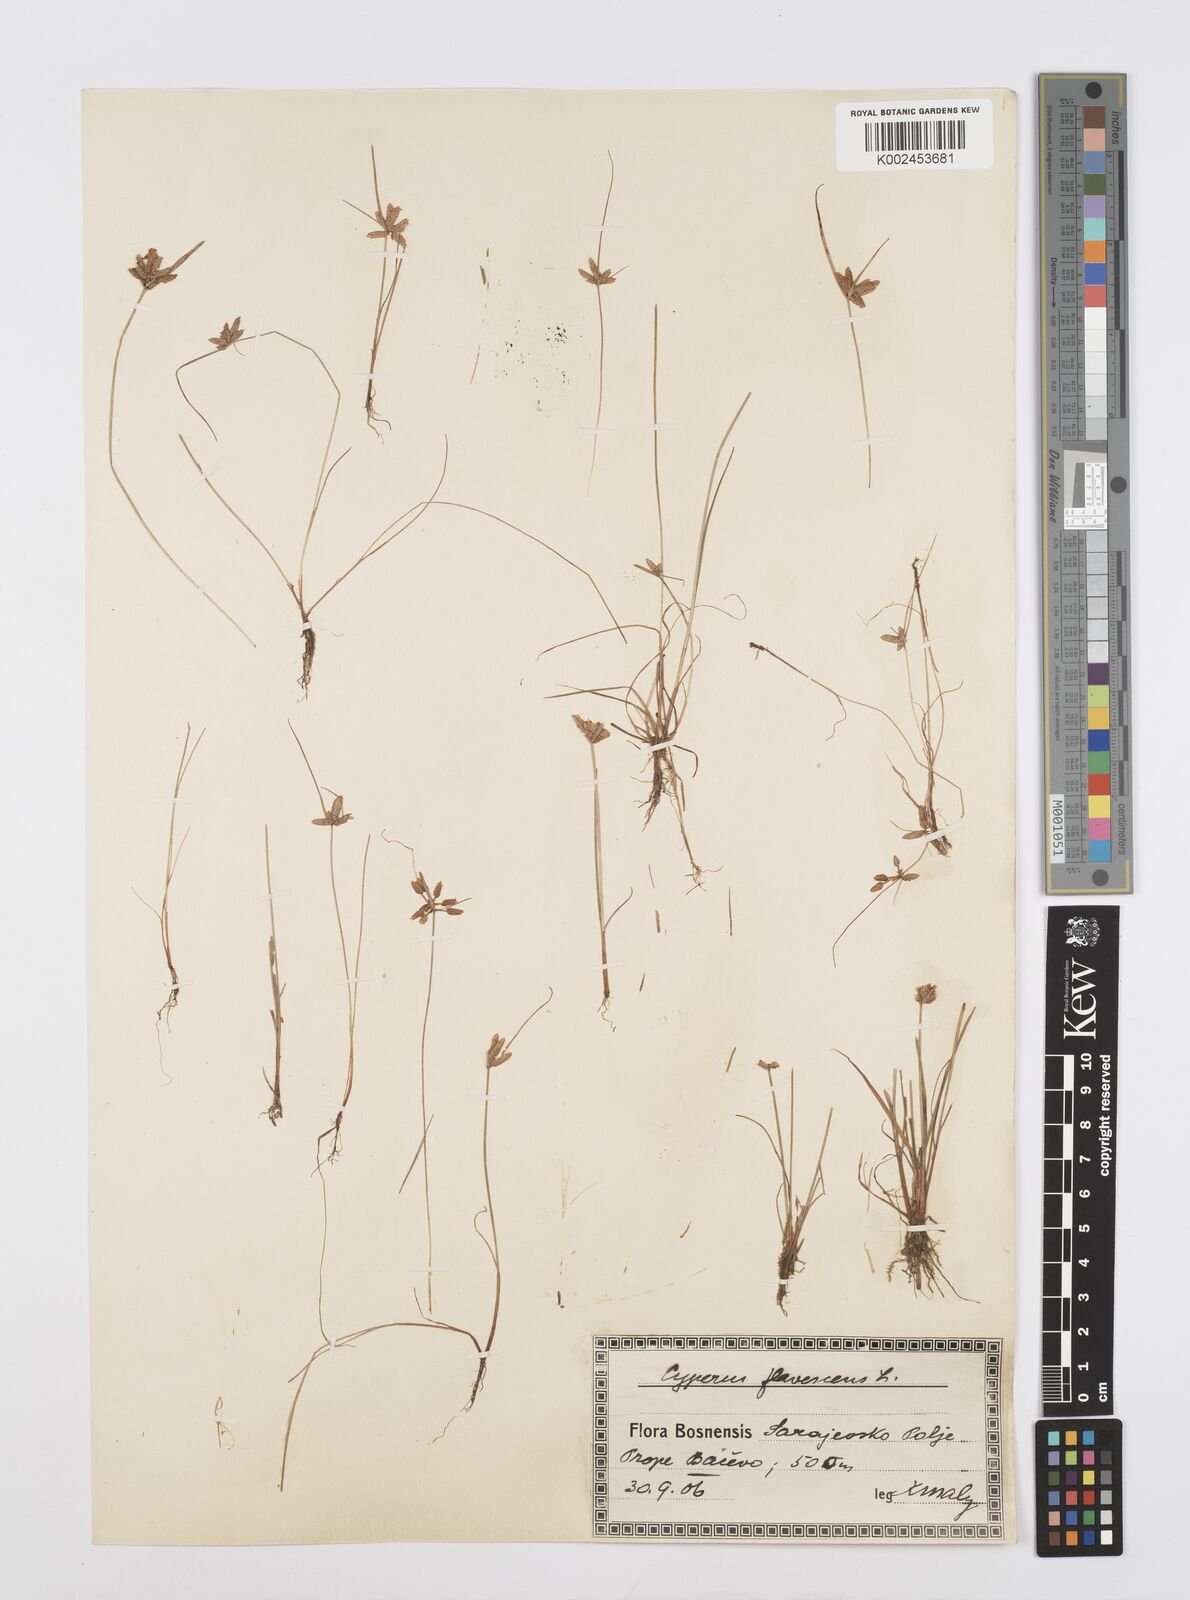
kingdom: Plantae
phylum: Tracheophyta
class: Liliopsida
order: Poales
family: Cyperaceae
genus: Cyperus
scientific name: Cyperus flavescens
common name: Yellow galingale
